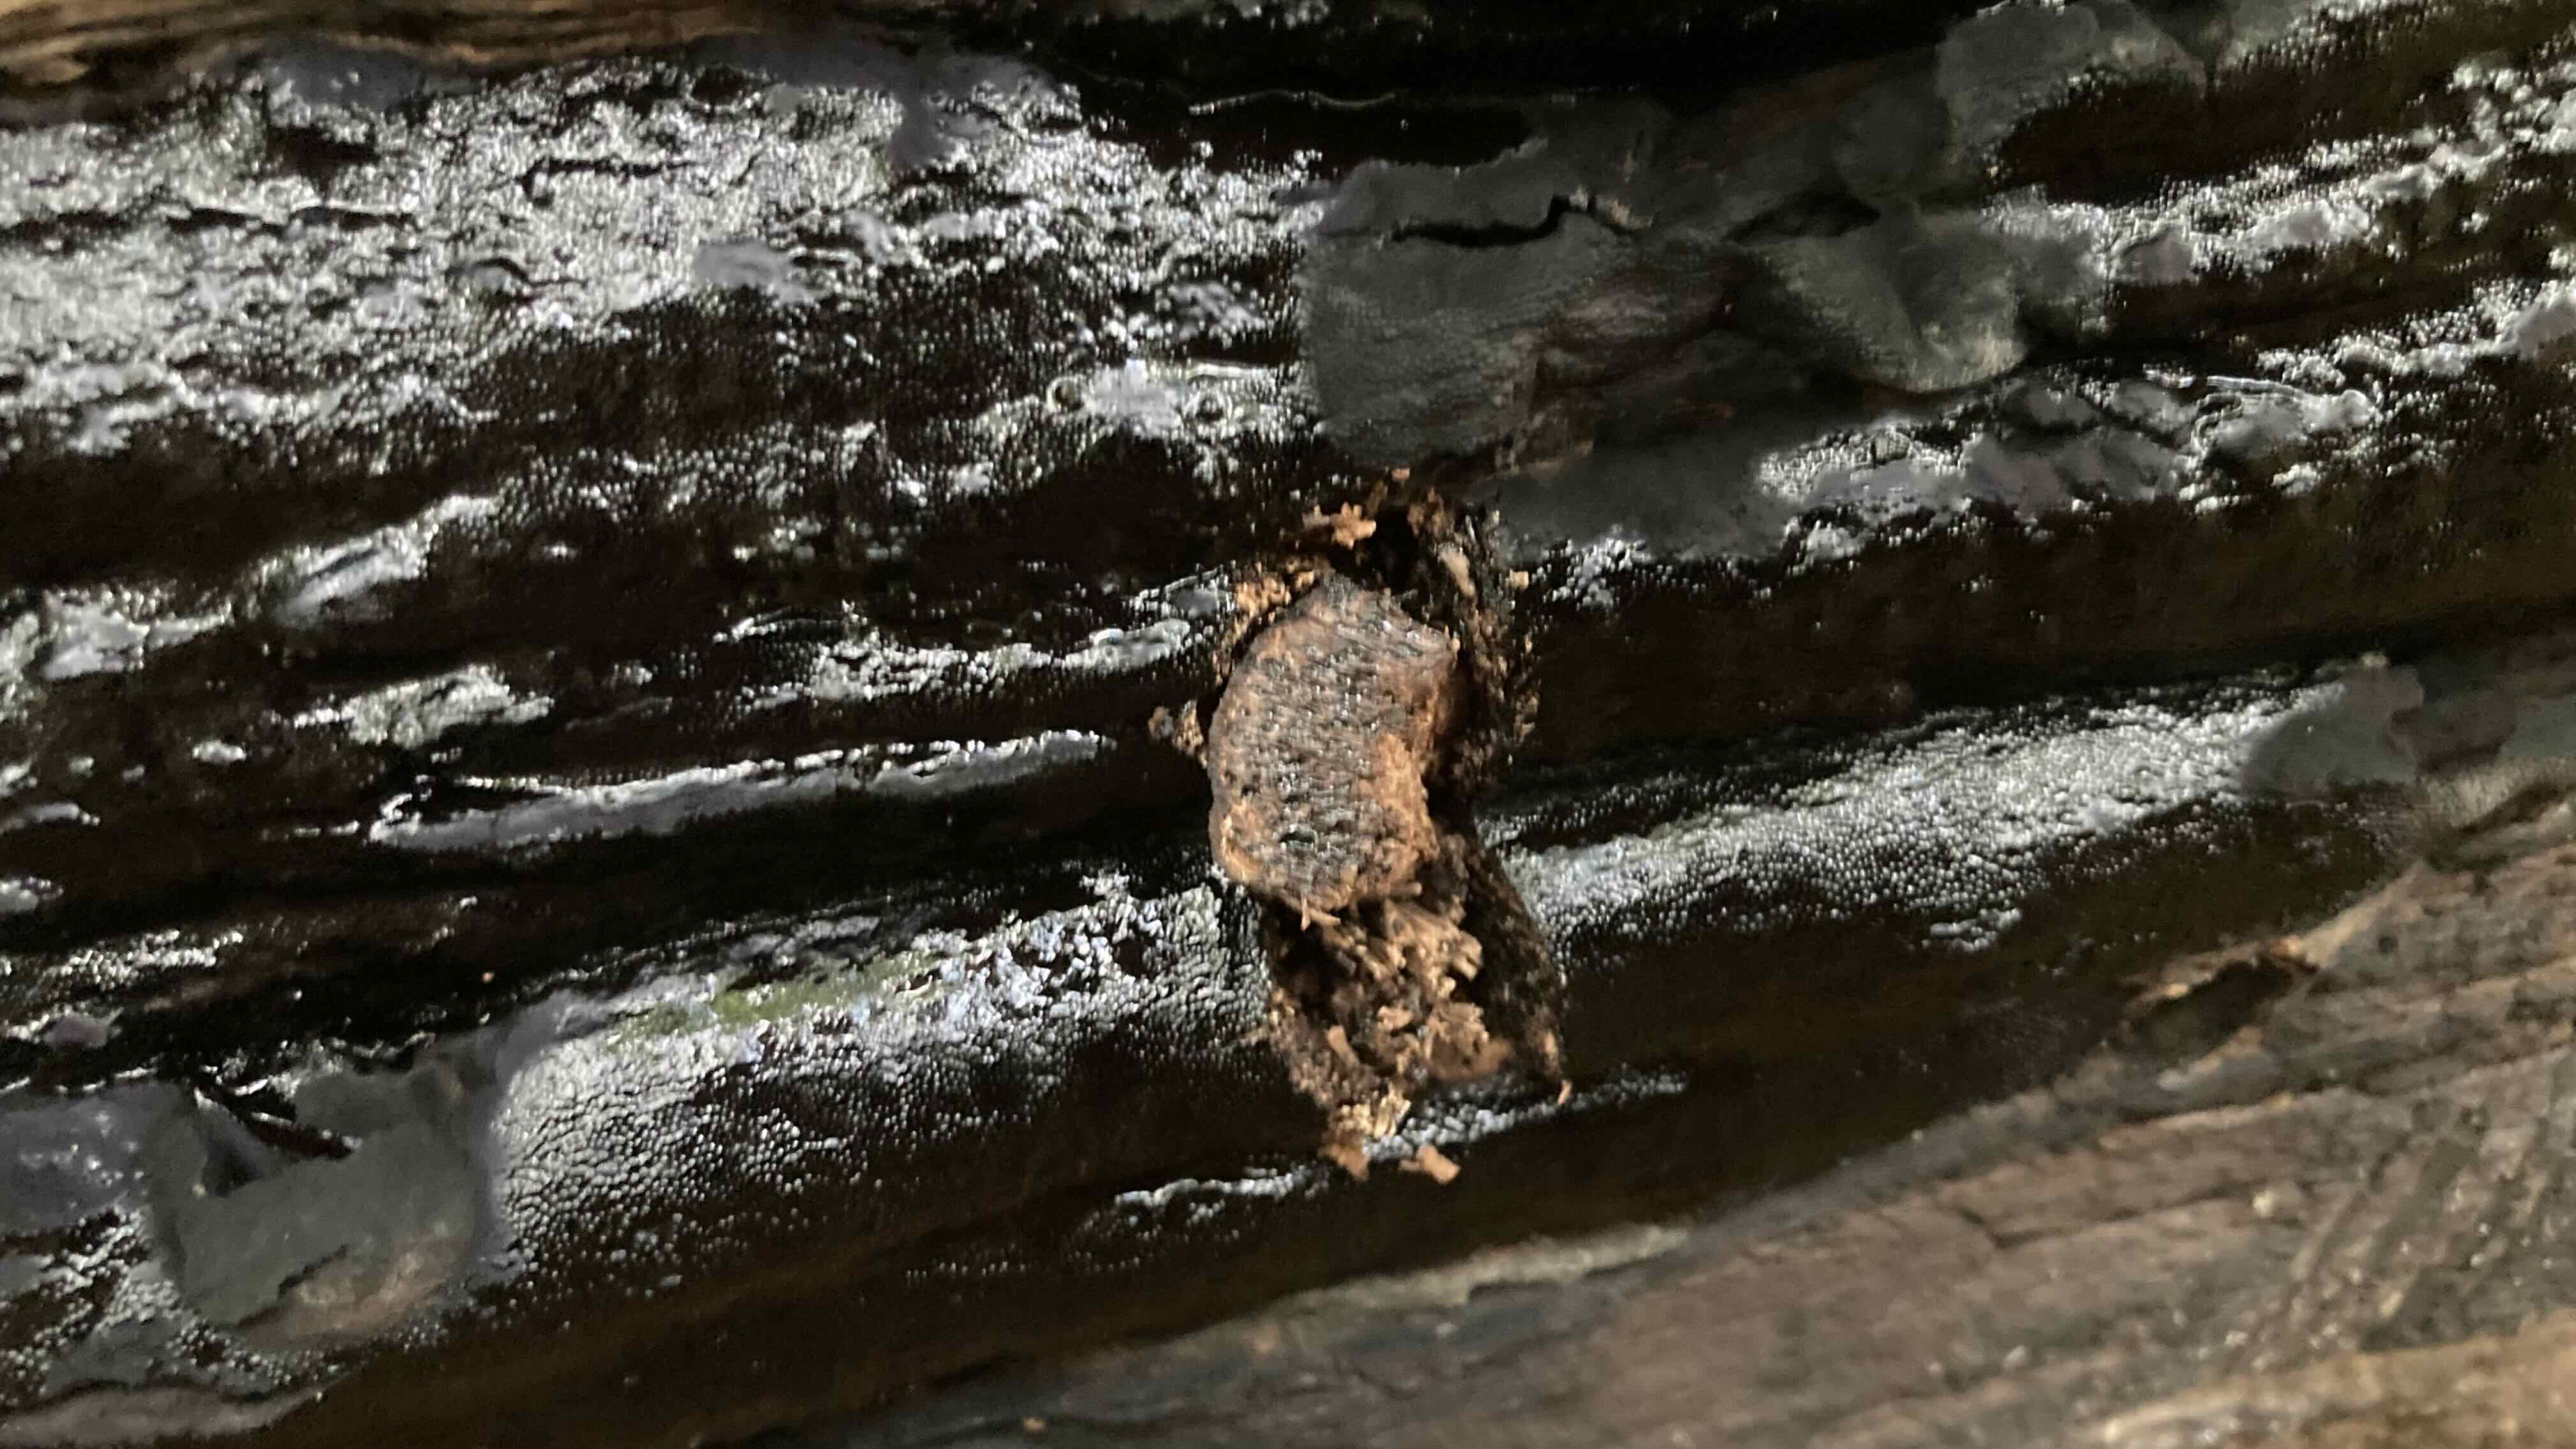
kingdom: Fungi
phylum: Ascomycota
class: Sordariomycetes
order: Boliniales
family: Boliniaceae
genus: Camarops
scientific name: Camarops tubulina
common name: knudret kulsnegl
